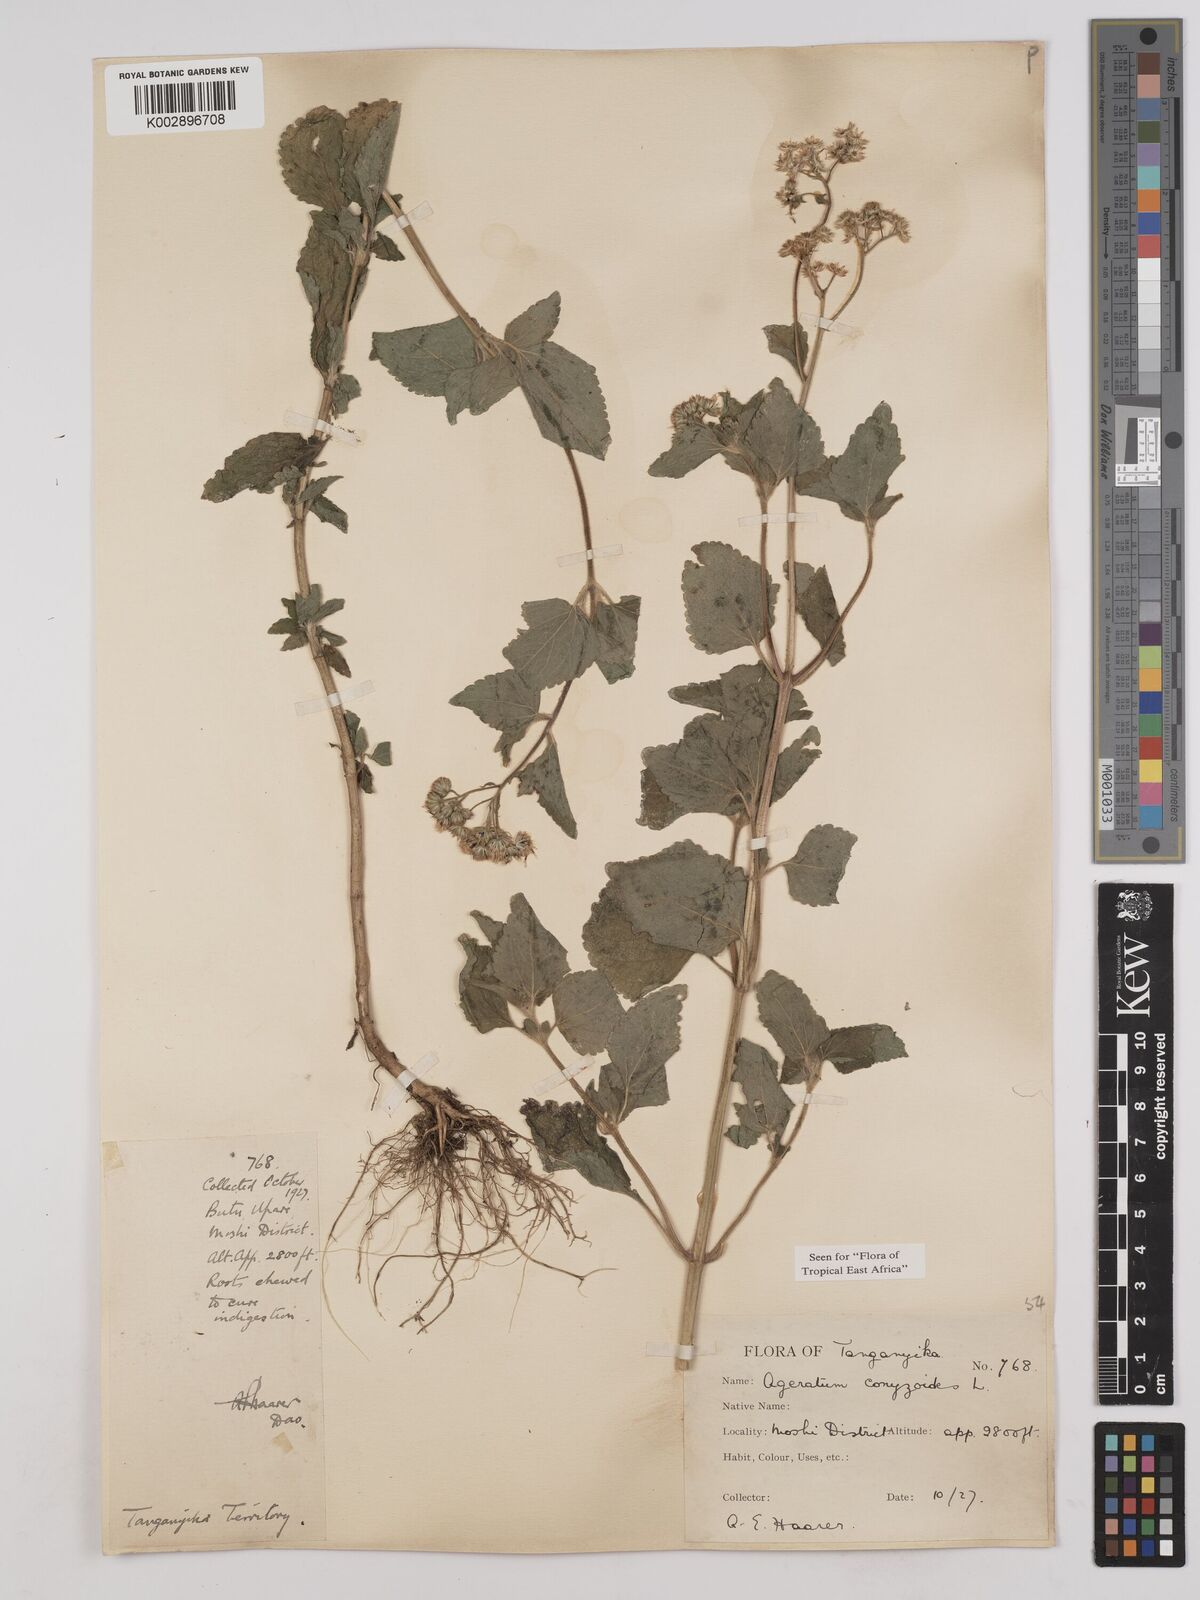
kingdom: Plantae
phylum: Tracheophyta
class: Magnoliopsida
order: Asterales
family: Asteraceae
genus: Ageratum
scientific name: Ageratum conyzoides
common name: Tropical whiteweed
